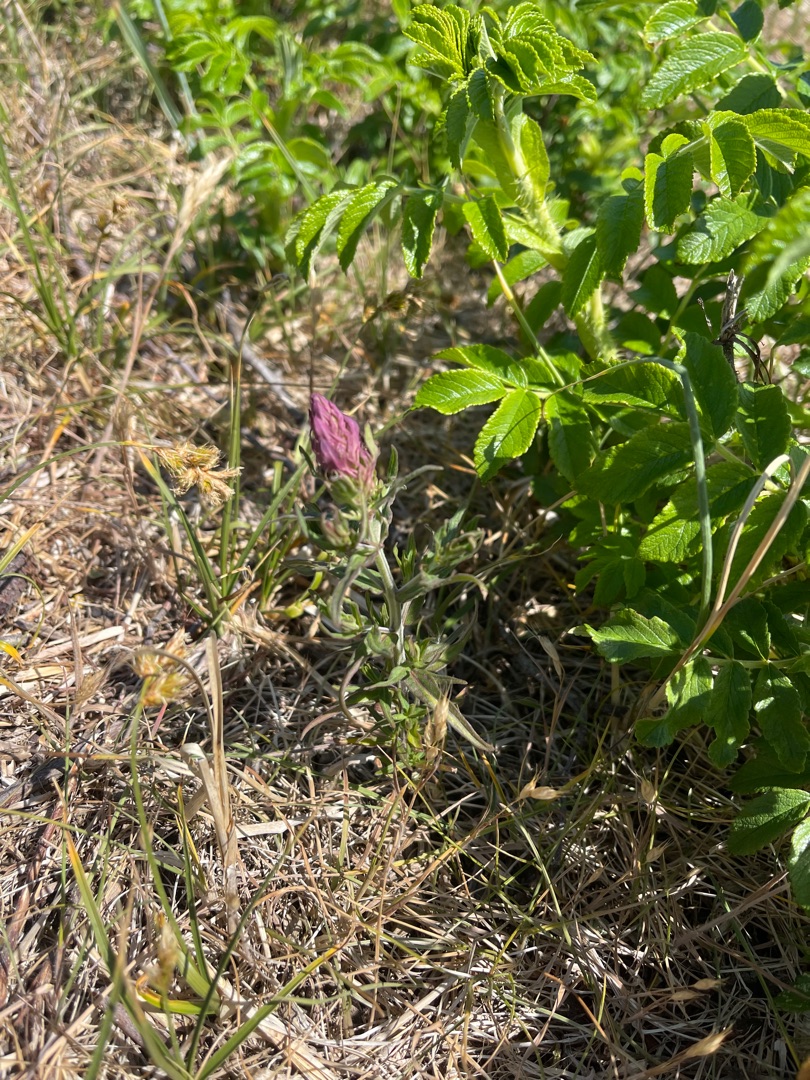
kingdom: Plantae
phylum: Tracheophyta
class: Magnoliopsida
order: Lamiales
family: Orobanchaceae
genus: Melampyrum
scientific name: Melampyrum arvense
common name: Ager-kohvede
